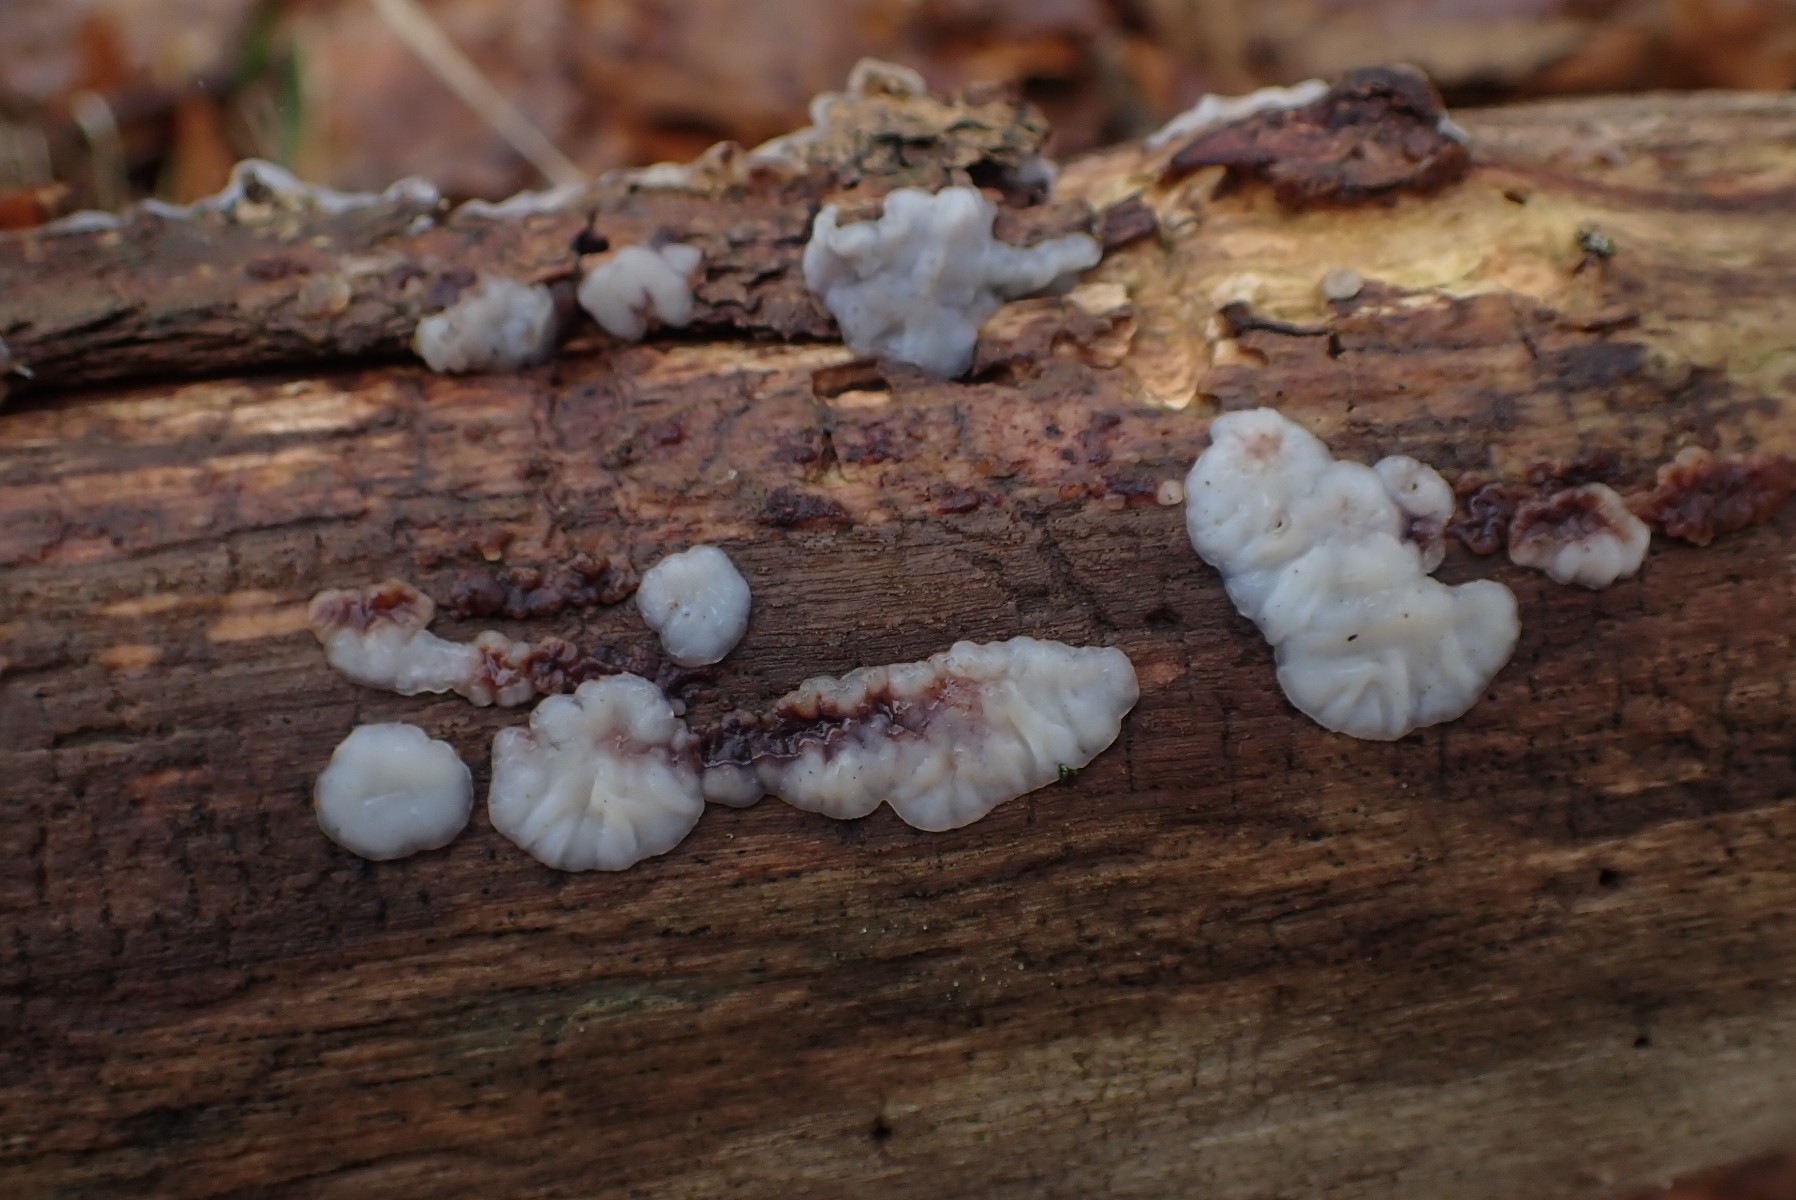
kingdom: Fungi
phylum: Basidiomycota
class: Agaricomycetes
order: Auriculariales
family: Auriculariaceae
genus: Exidia
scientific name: Exidia thuretiana
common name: hvidlig bævretop
